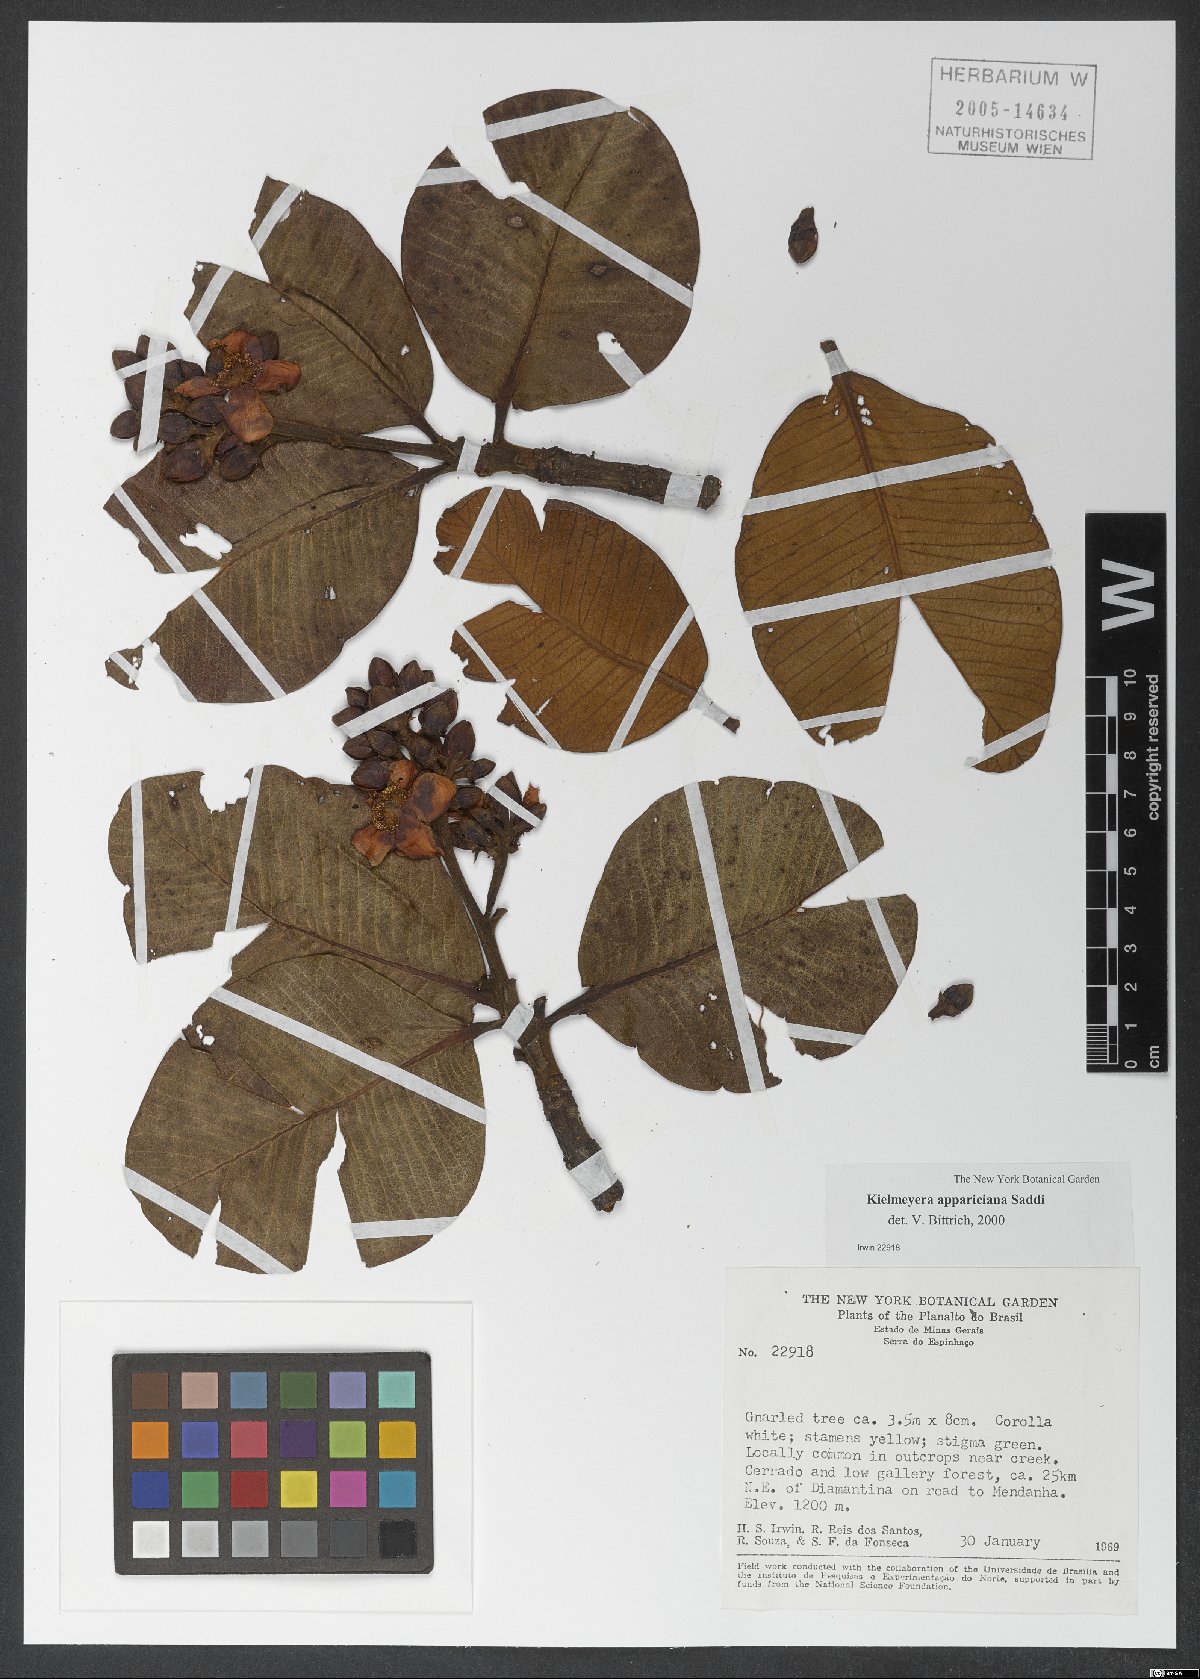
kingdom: Plantae
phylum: Tracheophyta
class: Magnoliopsida
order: Malpighiales
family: Calophyllaceae
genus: Kielmeyera
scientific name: Kielmeyera appariciana
